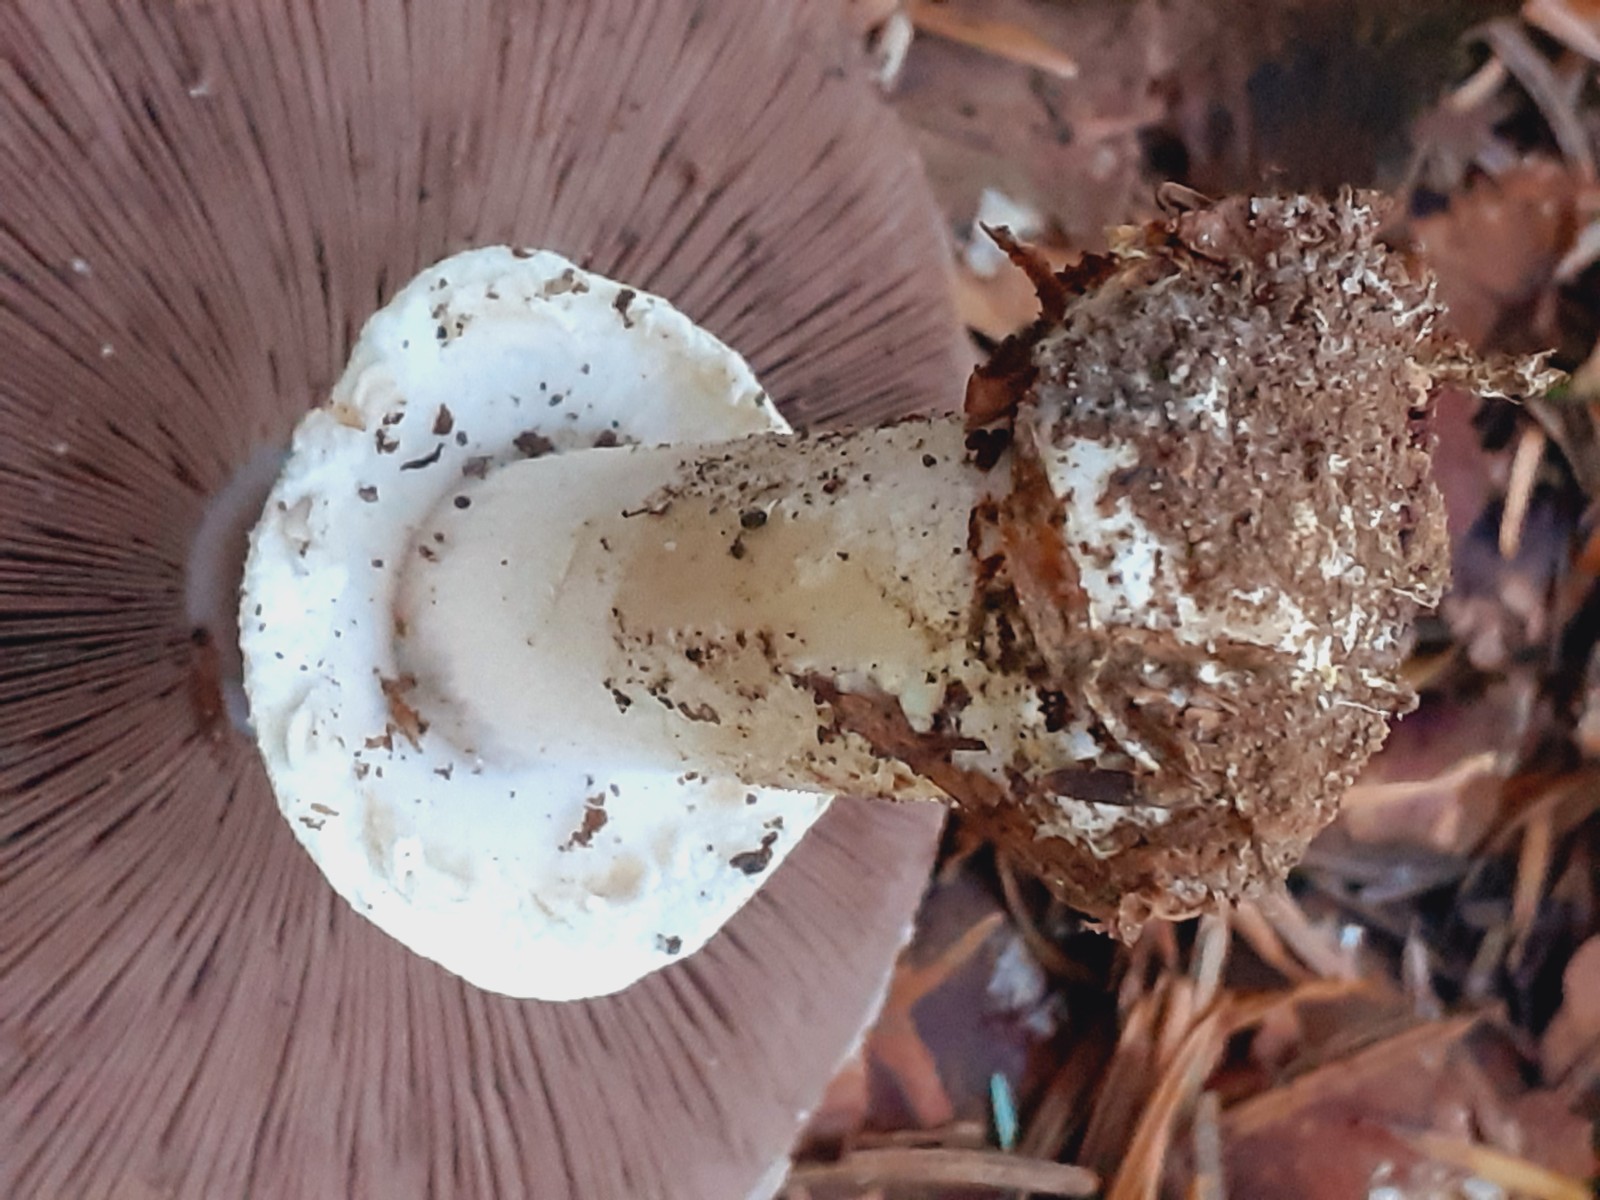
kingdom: Fungi
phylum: Basidiomycota
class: Agaricomycetes
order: Agaricales
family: Agaricaceae
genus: Agaricus
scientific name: Agaricus sylvicola
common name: skiveknoldet champignon
